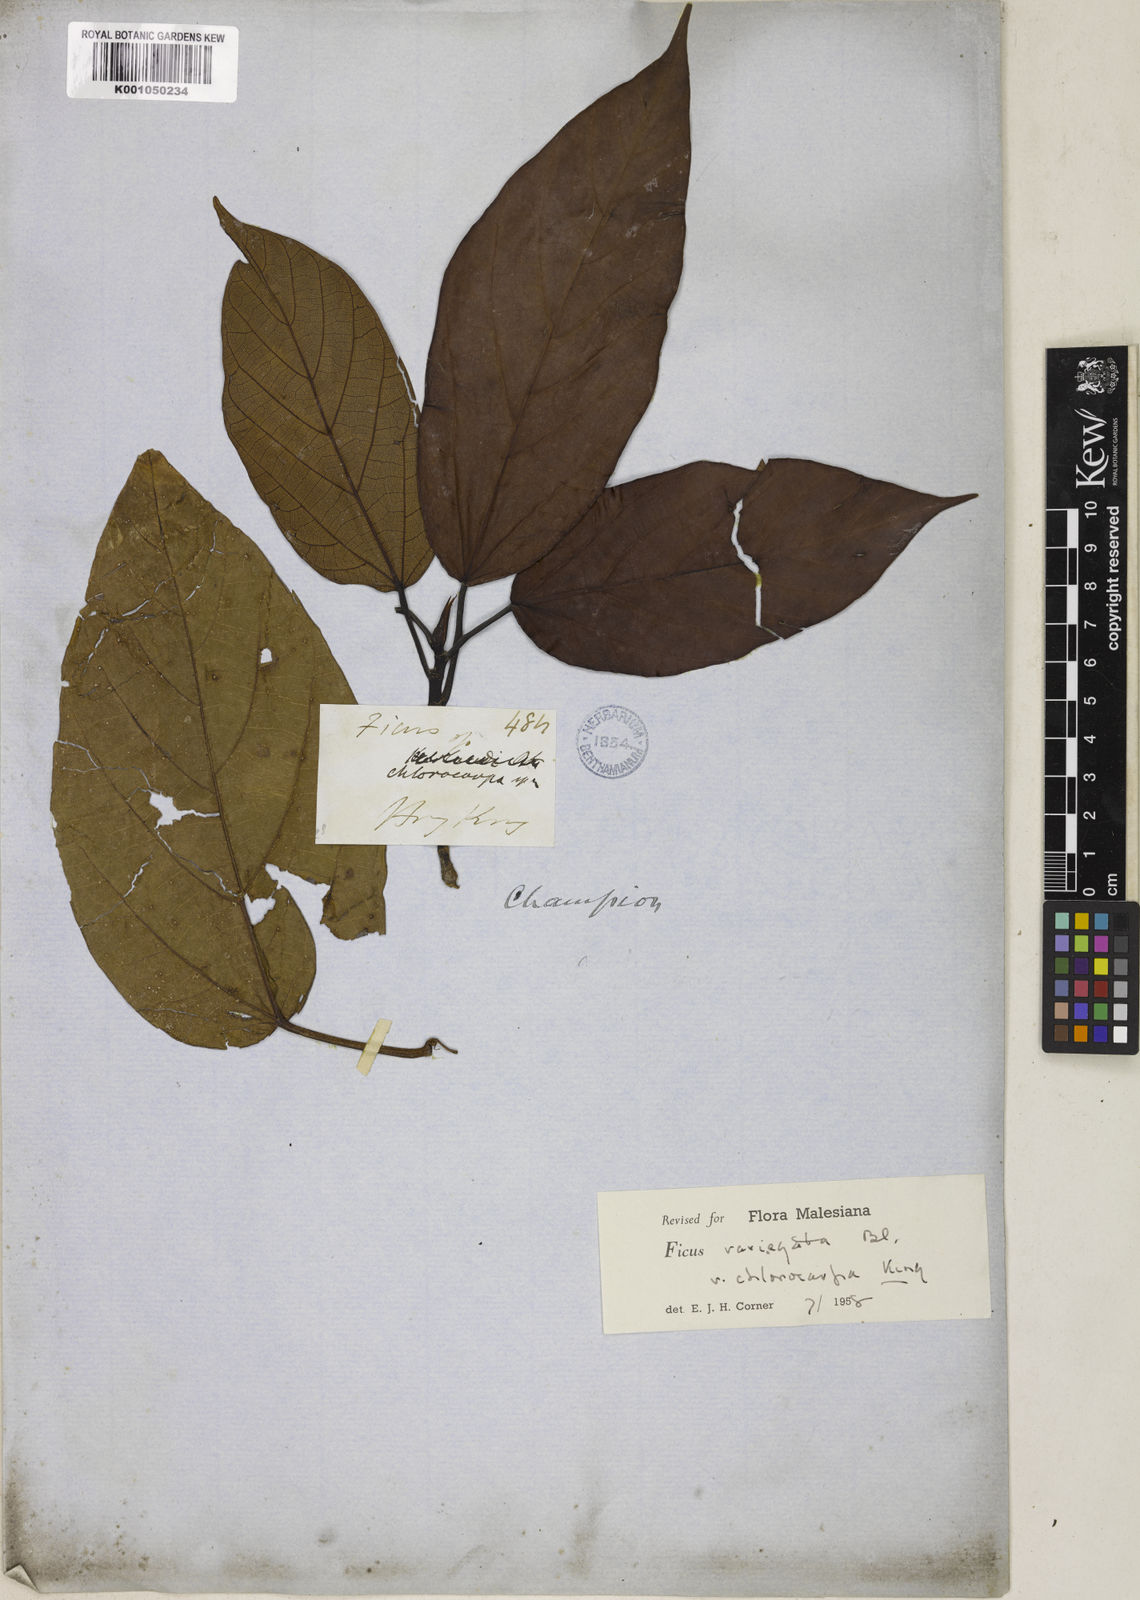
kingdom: Plantae
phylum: Tracheophyta
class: Magnoliopsida
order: Rosales
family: Moraceae
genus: Ficus
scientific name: Ficus variegata
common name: Variegated fig
